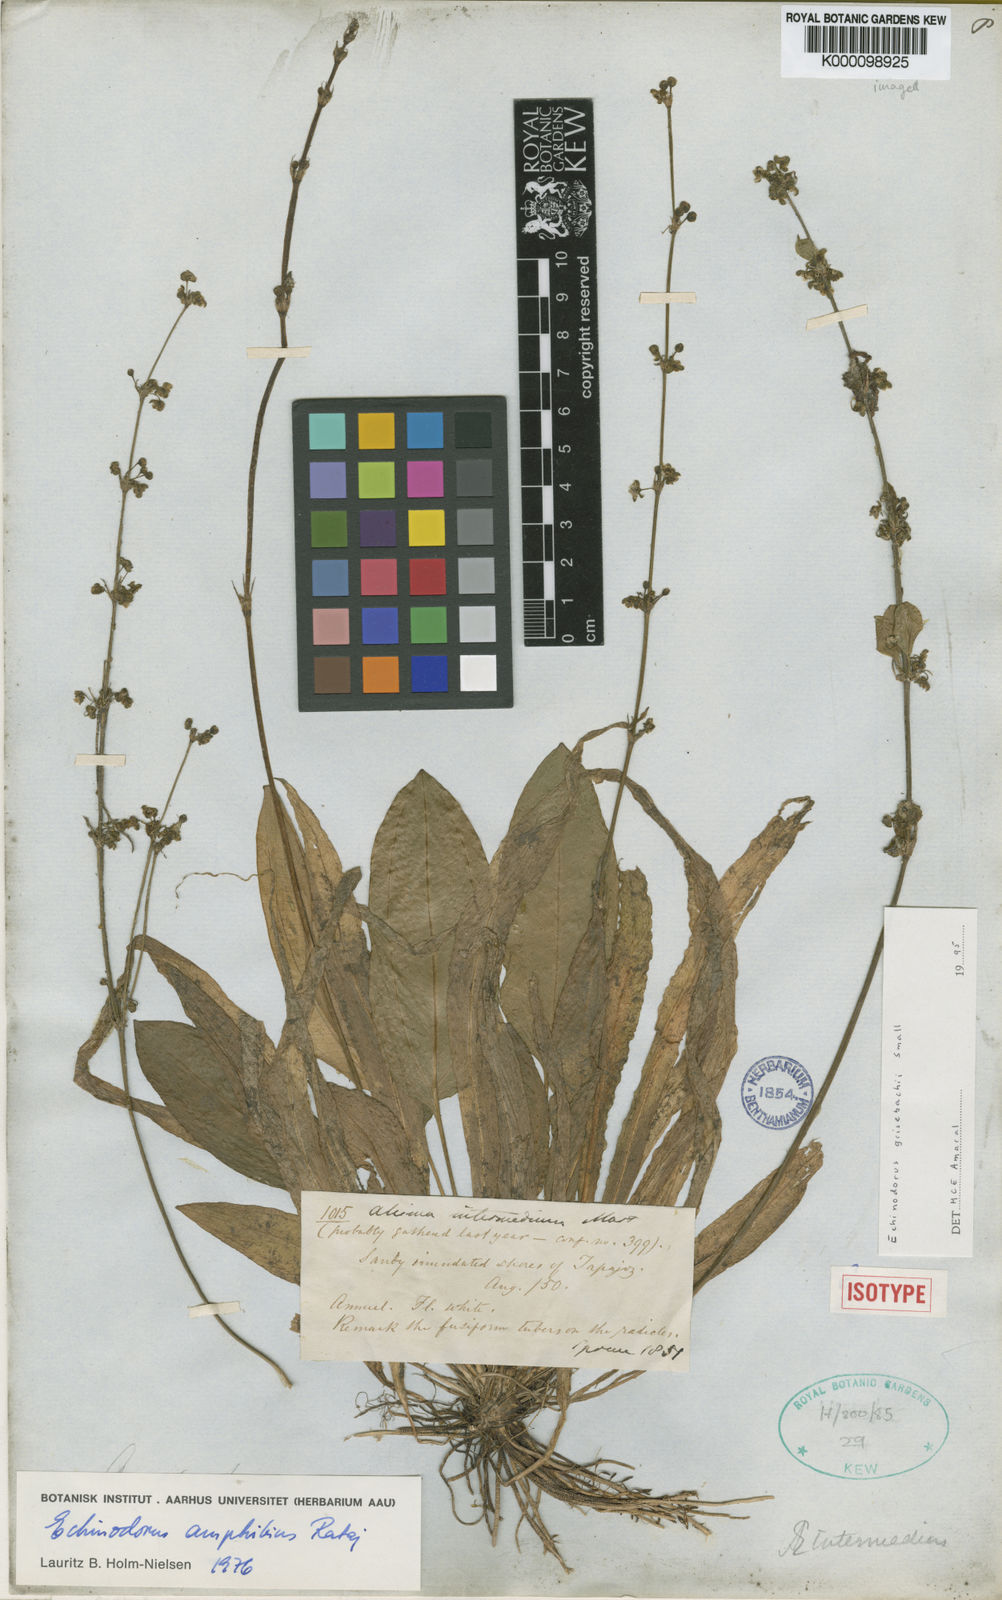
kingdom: Plantae
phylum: Tracheophyta
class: Liliopsida
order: Alismatales
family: Alismataceae
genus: Aquarius
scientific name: Aquarius grisebachii
